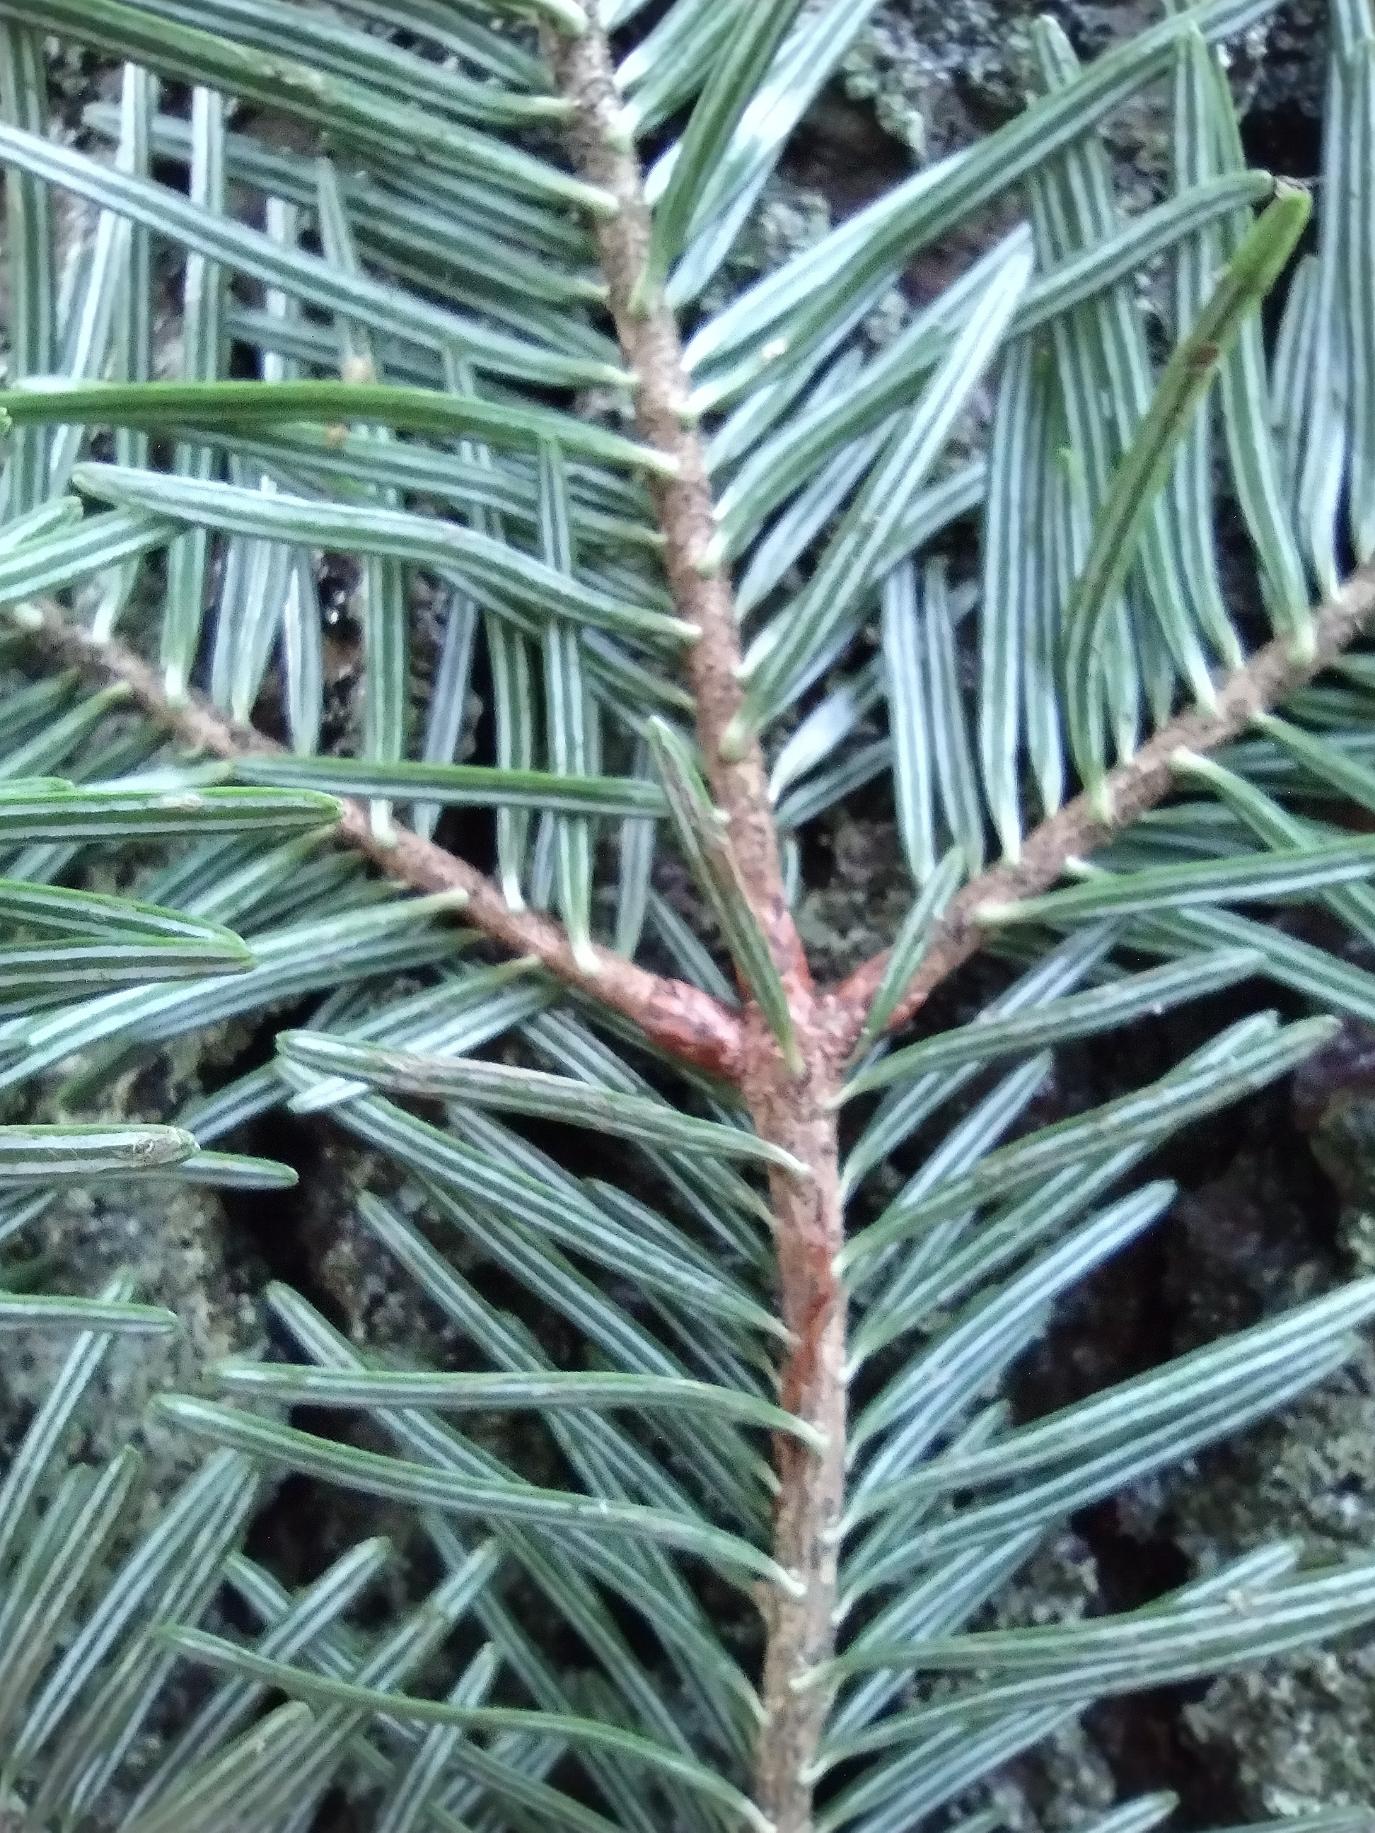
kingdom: Plantae
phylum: Tracheophyta
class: Pinopsida
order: Pinales
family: Pinaceae
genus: Abies
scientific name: Abies alba
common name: Almindelig ædelgran
